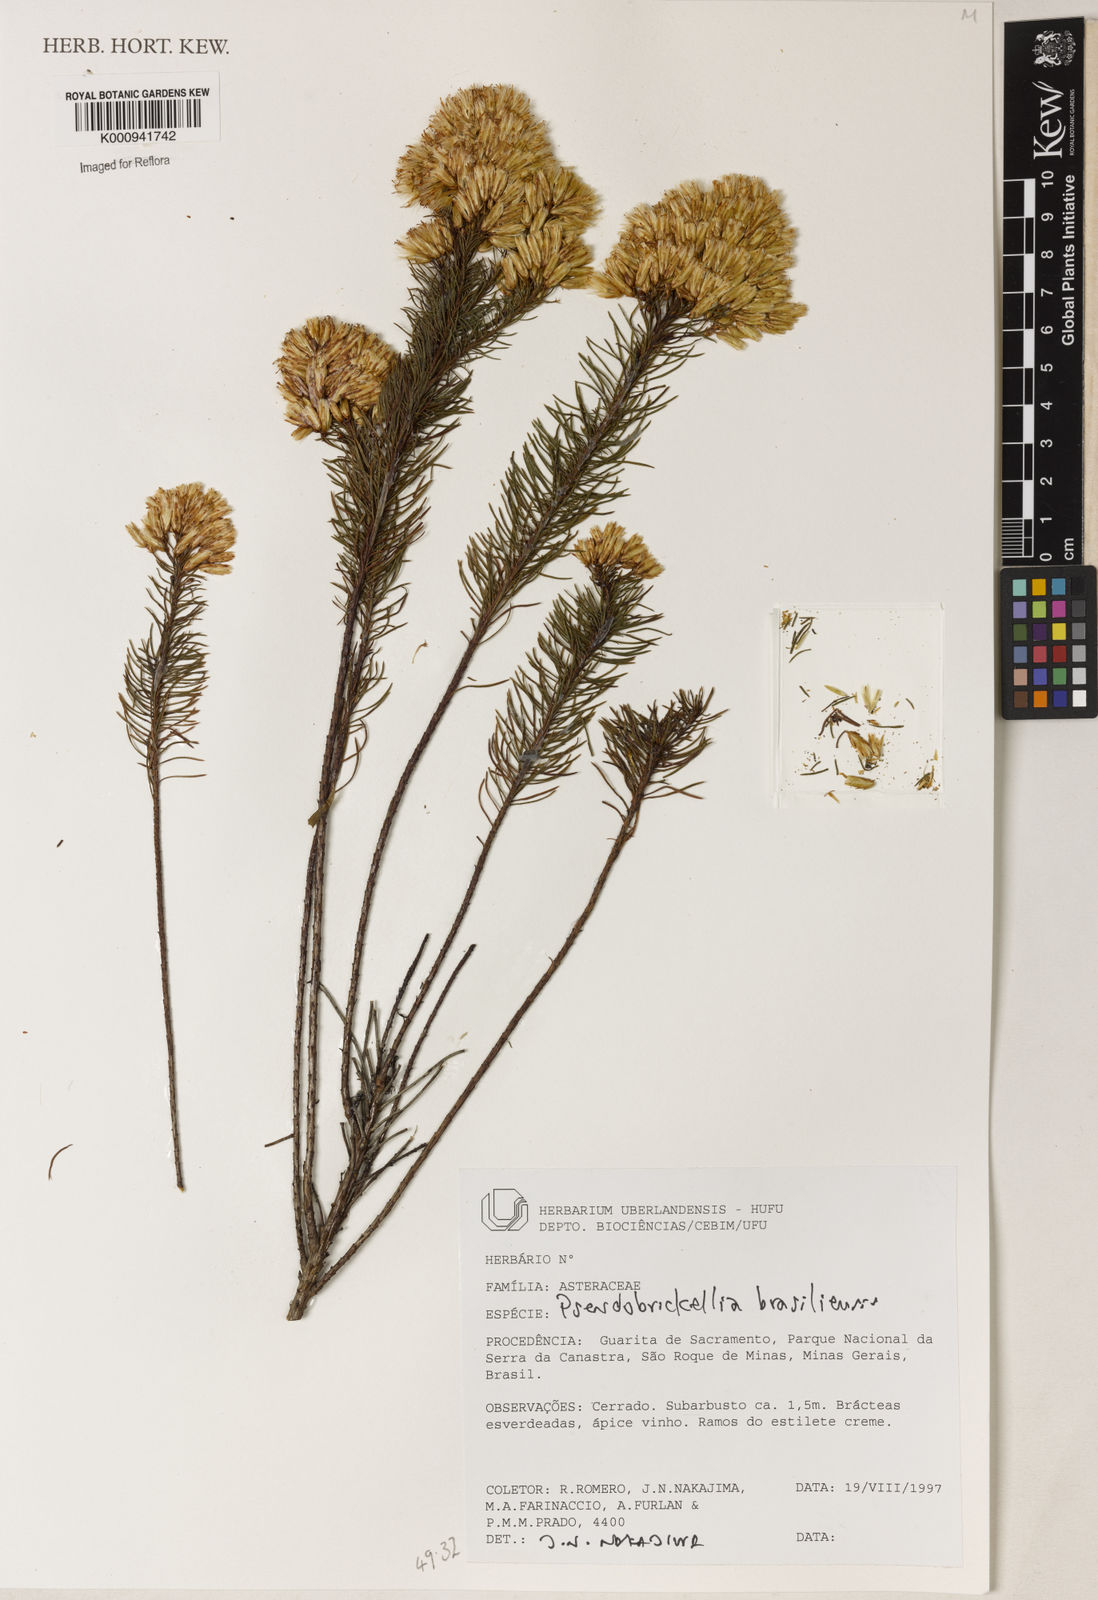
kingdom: Plantae
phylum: Tracheophyta
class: Magnoliopsida
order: Asterales
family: Asteraceae
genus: Pseudobrickellia
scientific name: Pseudobrickellia brasiliensis
